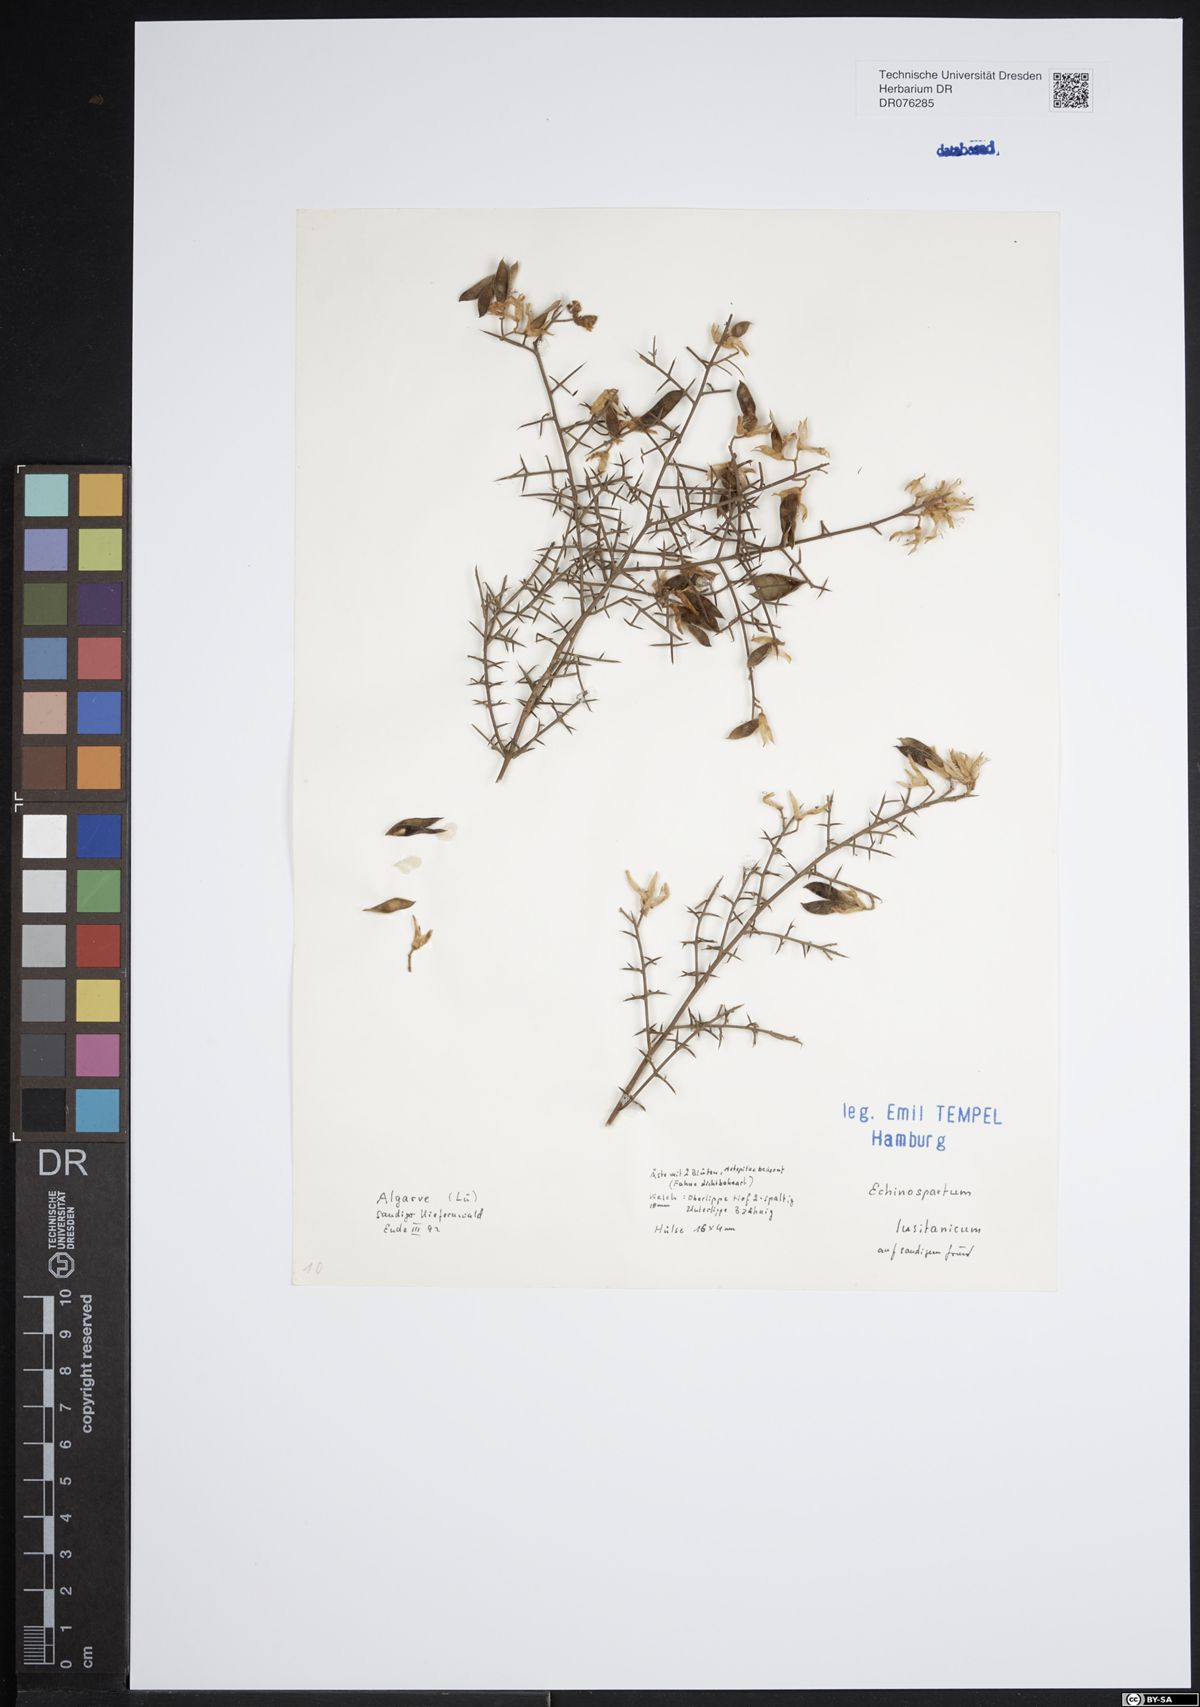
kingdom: Plantae
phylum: Tracheophyta
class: Magnoliopsida
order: Fabales
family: Fabaceae
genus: Echinospartum
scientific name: Echinospartum lusitanicum
